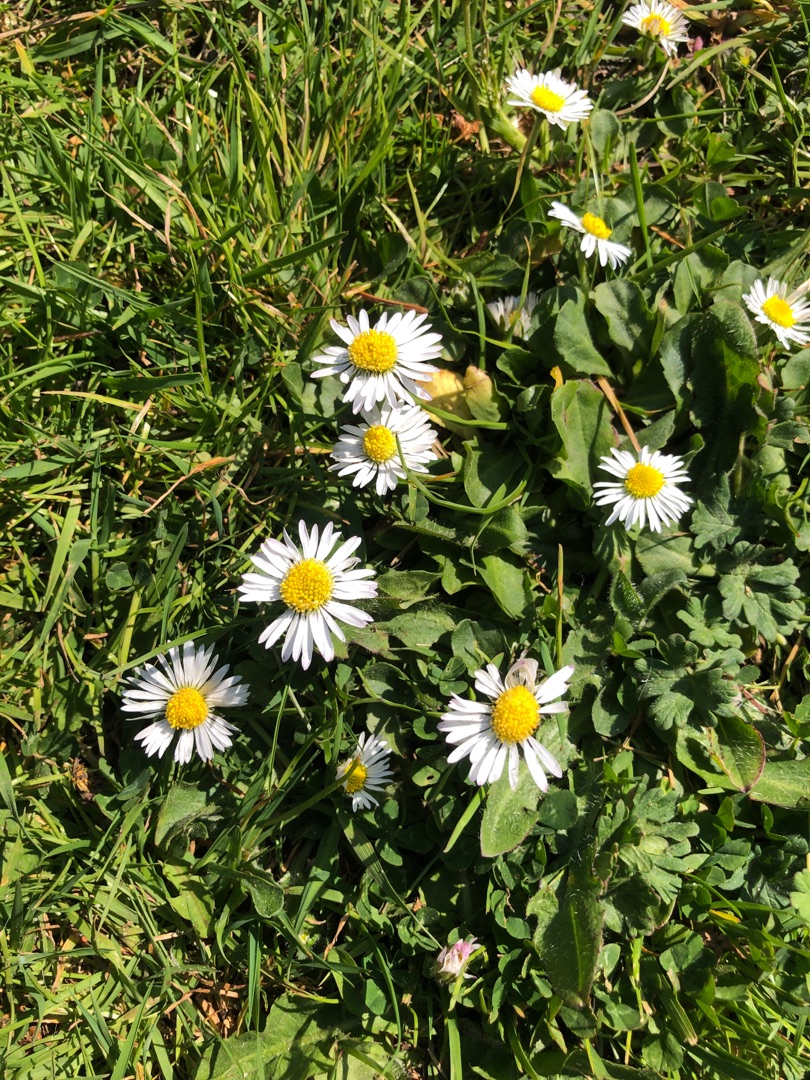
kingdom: Plantae
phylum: Tracheophyta
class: Magnoliopsida
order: Asterales
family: Asteraceae
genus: Bellis
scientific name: Bellis perennis
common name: Tusindfryd
